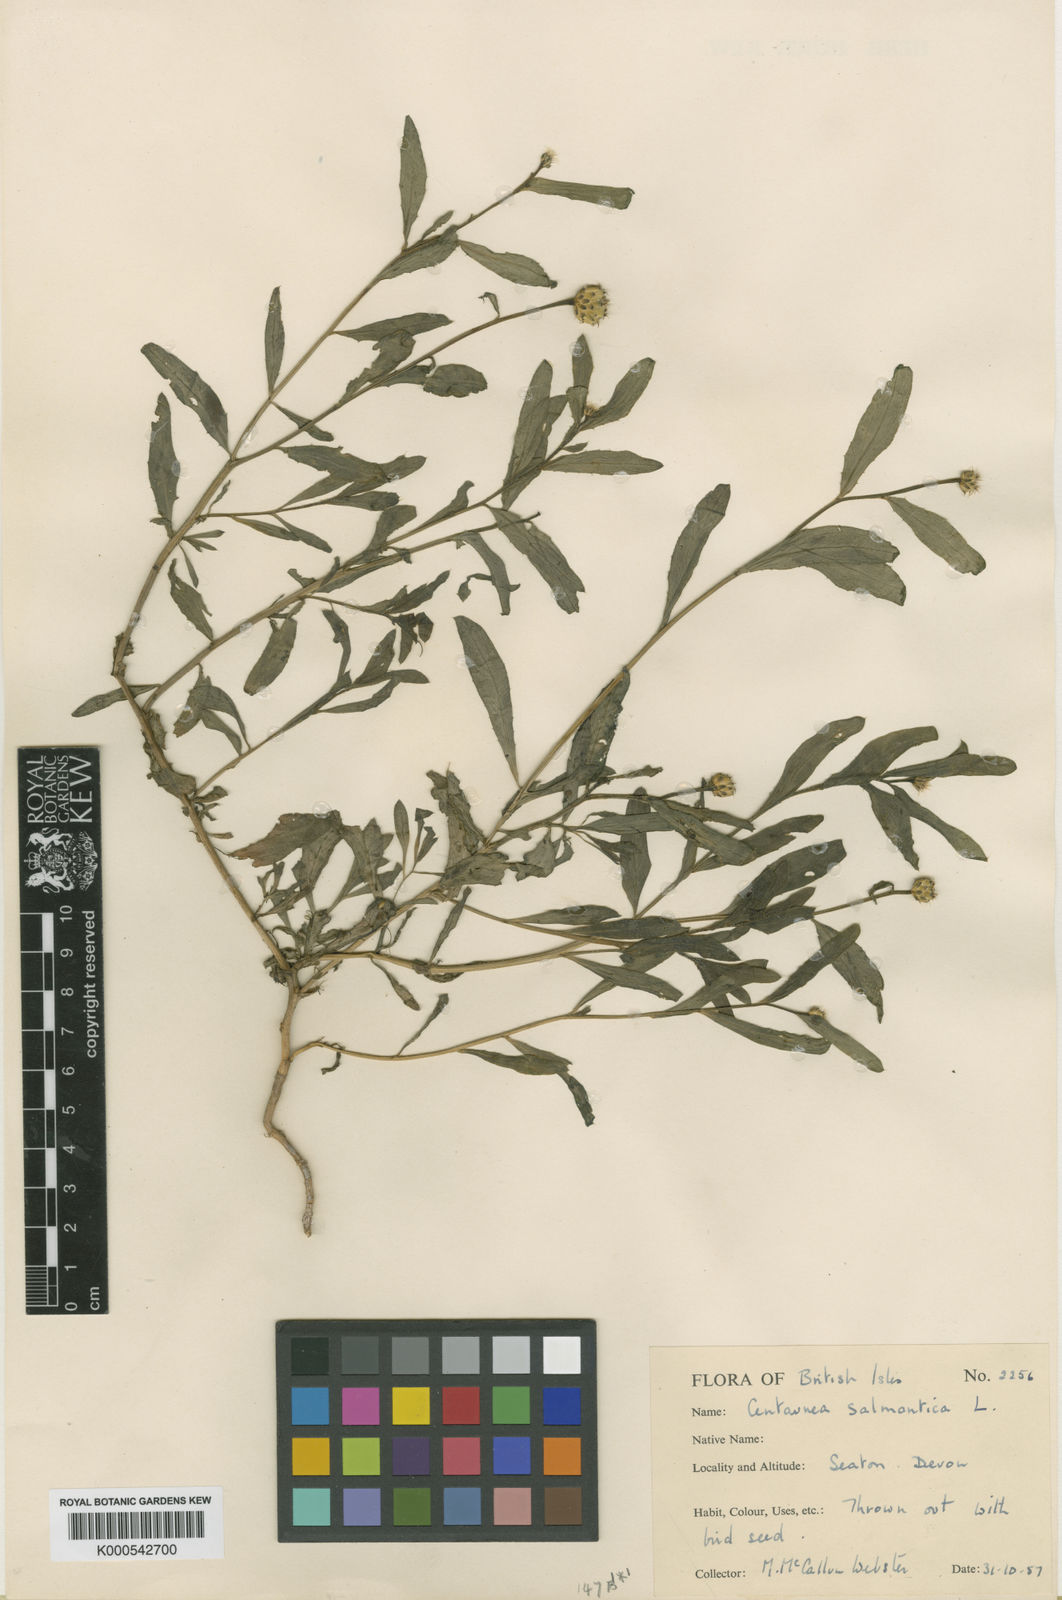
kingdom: Plantae
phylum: Tracheophyta
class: Magnoliopsida
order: Asterales
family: Asteraceae
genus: Mantisalca
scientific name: Mantisalca salmantica
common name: Dagger flower
